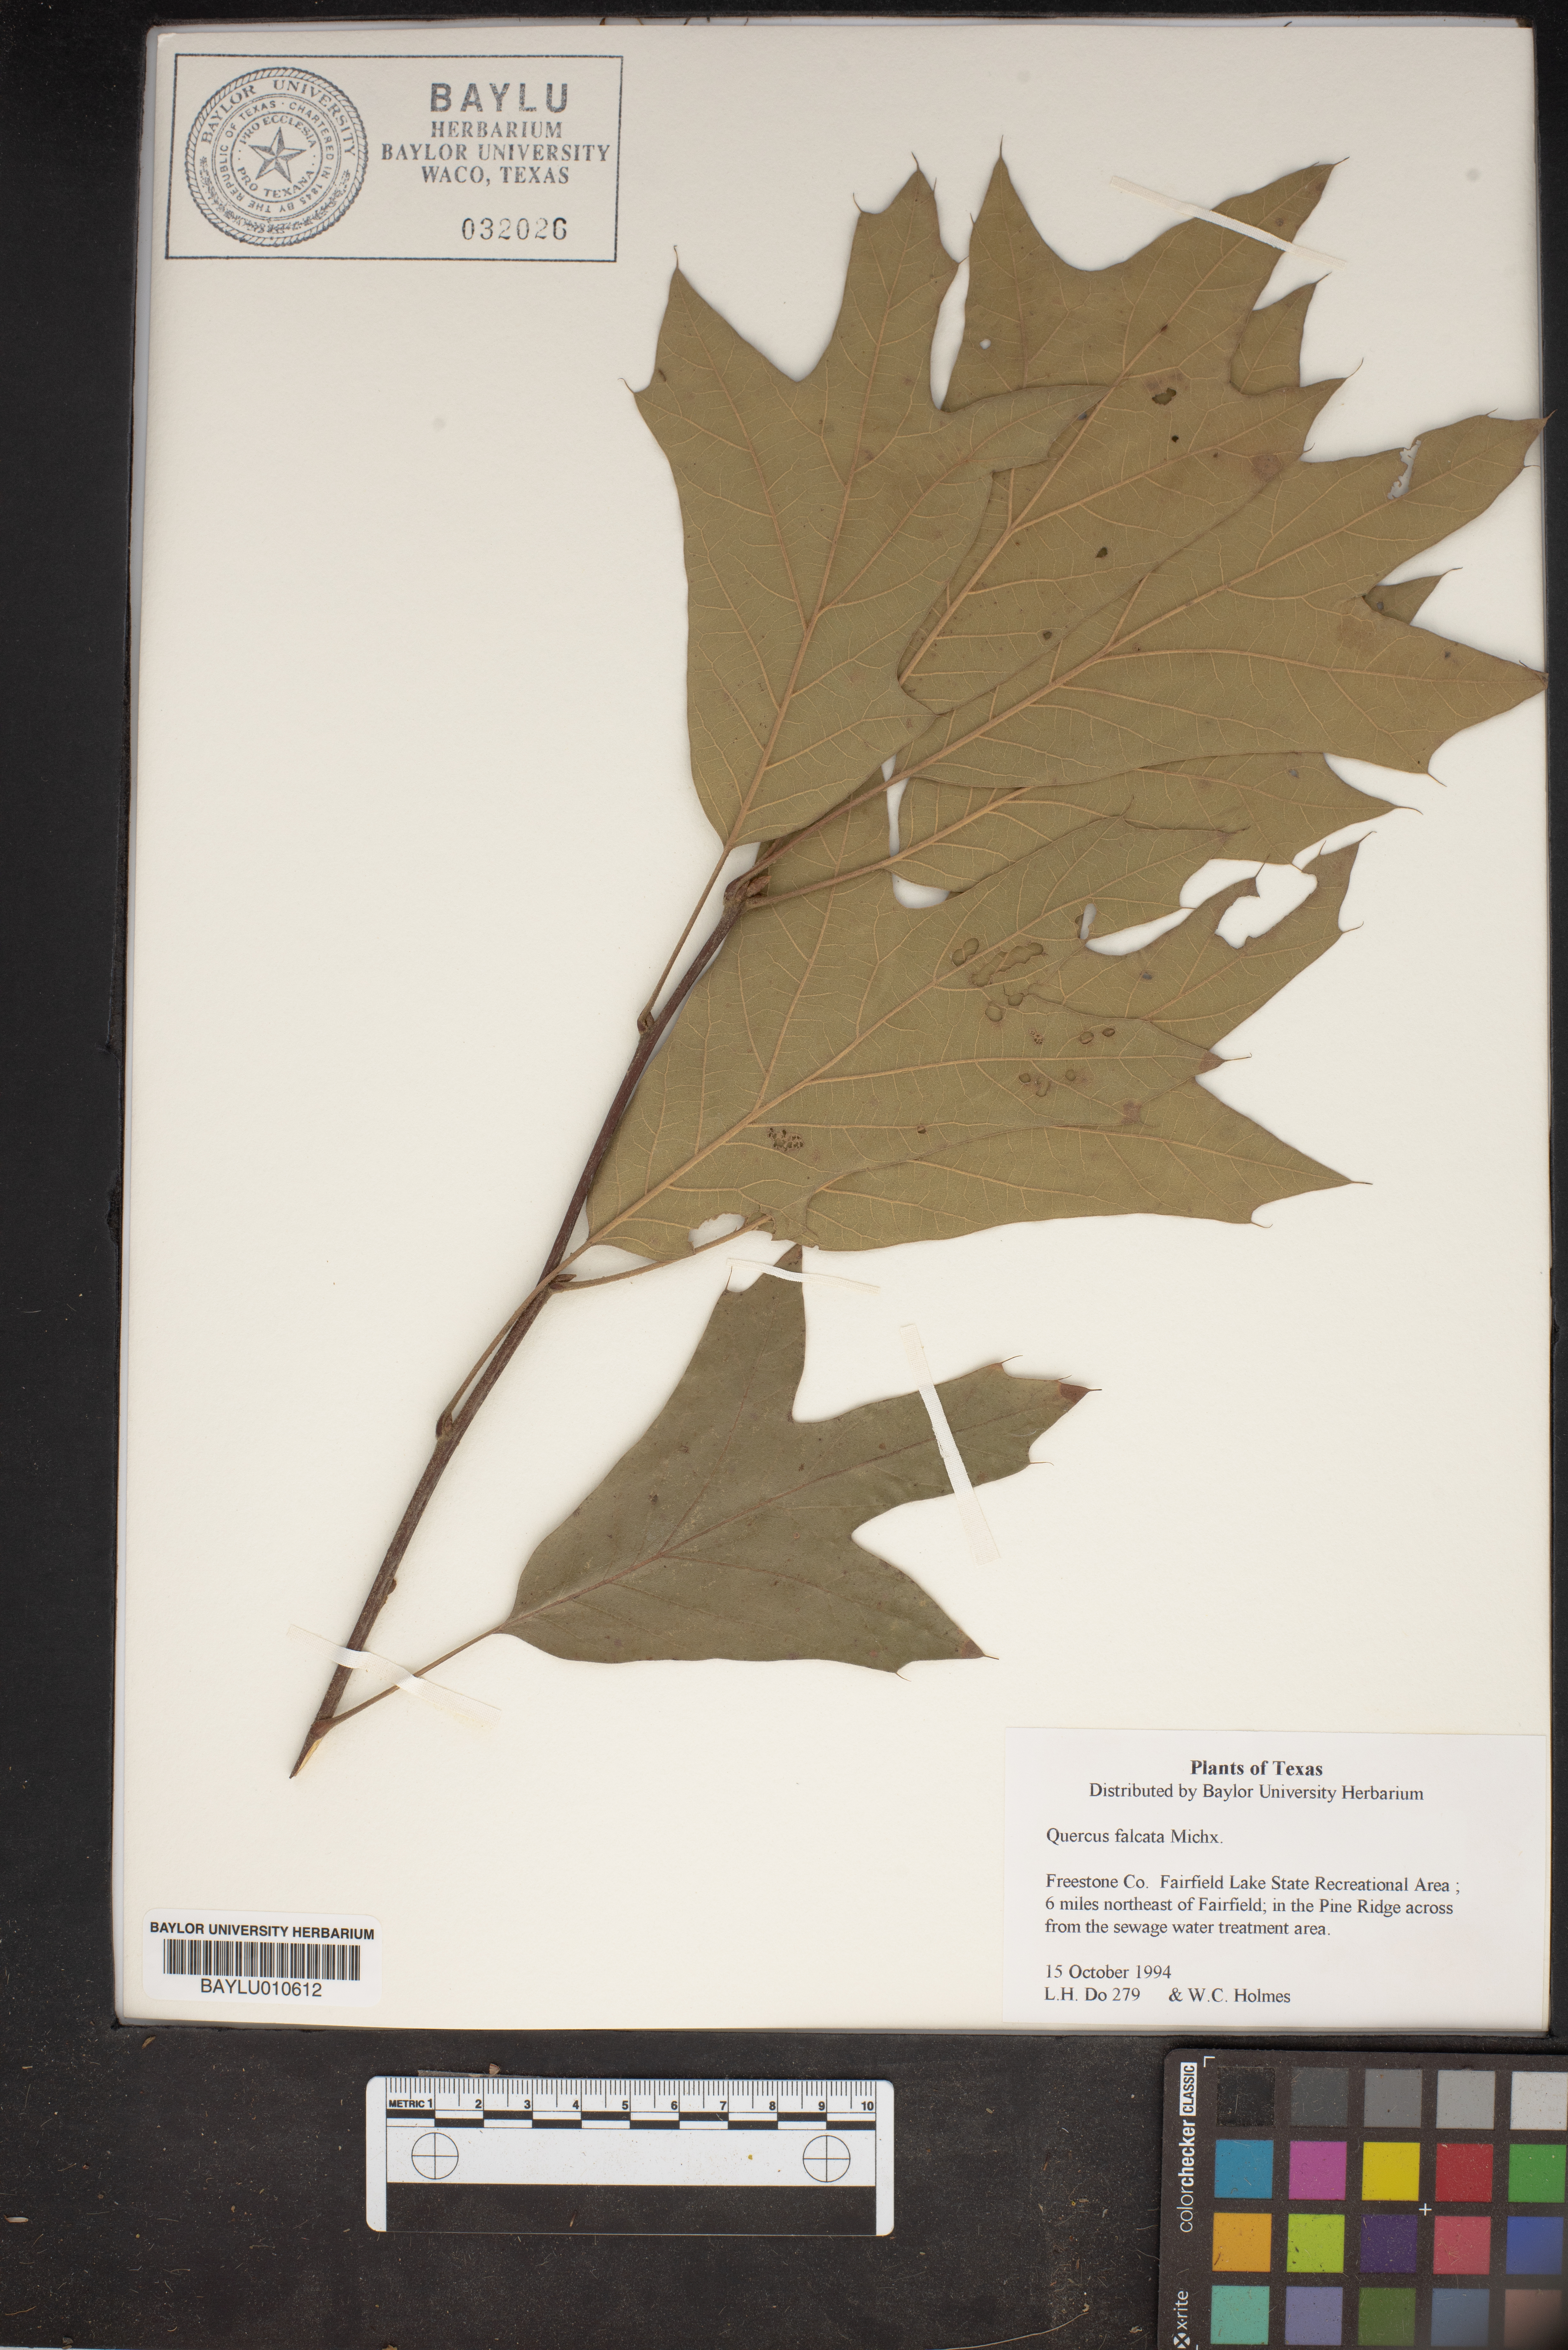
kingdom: Plantae
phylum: Tracheophyta
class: Magnoliopsida
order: Fagales
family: Fagaceae
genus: Quercus
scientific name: Quercus falcata
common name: Southern red oak
